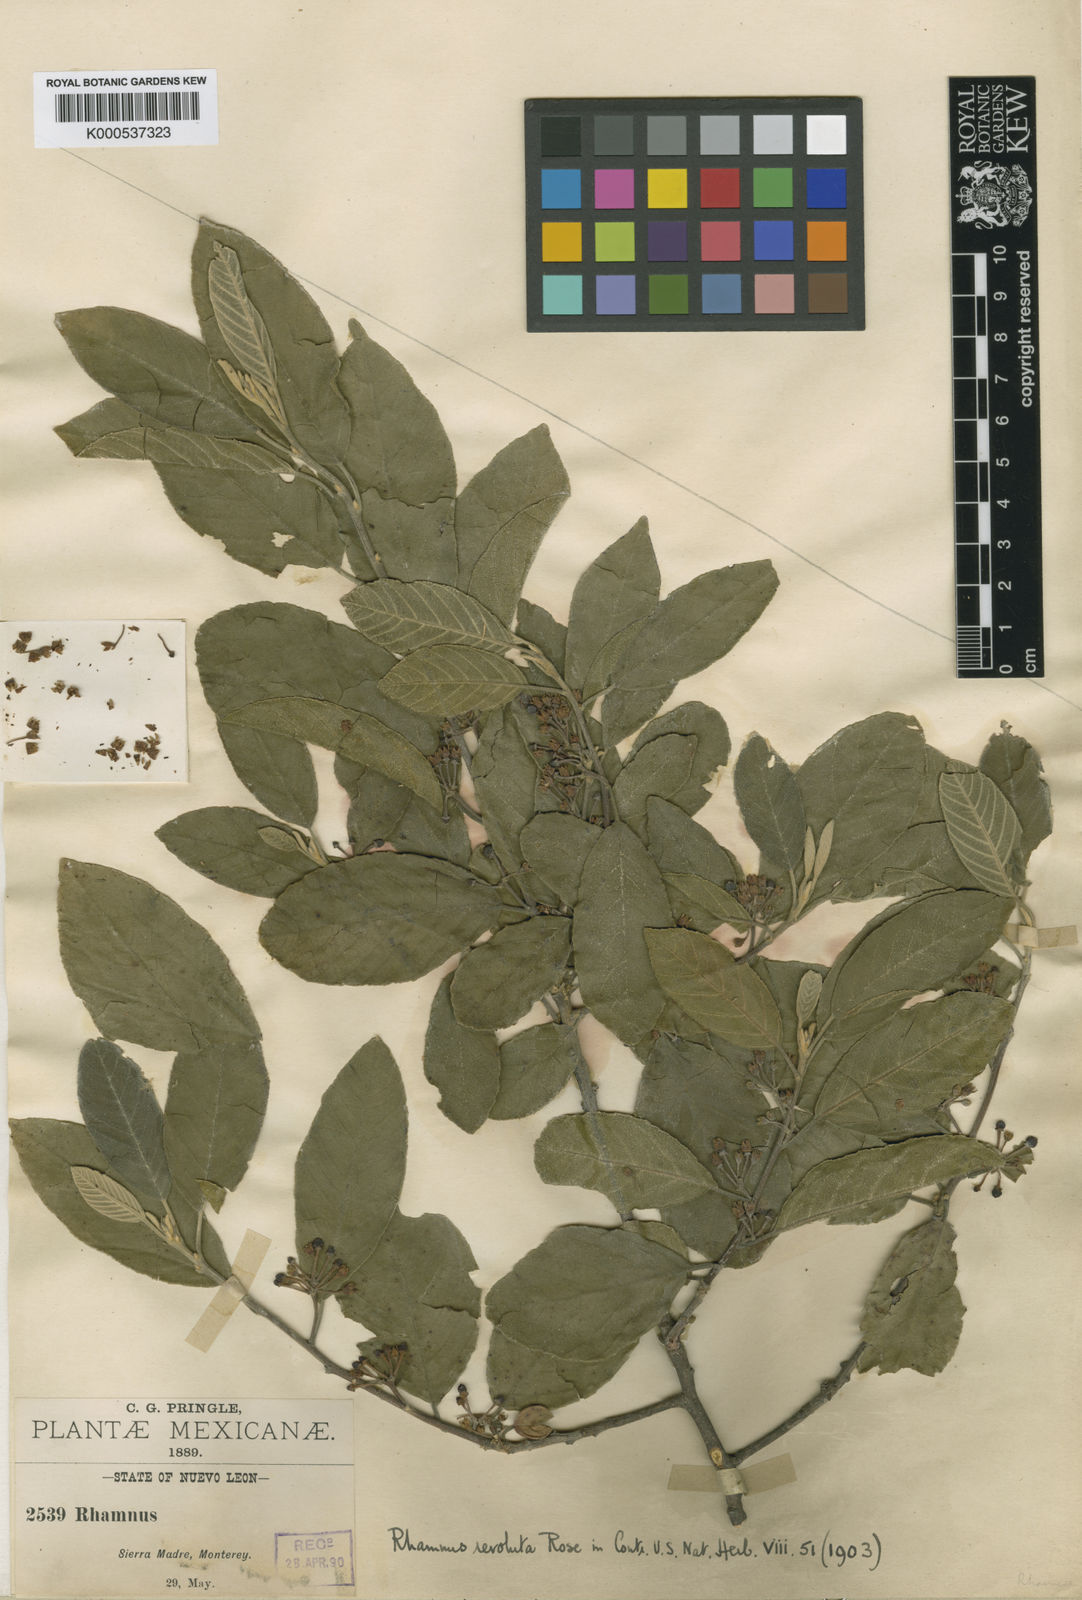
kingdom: Plantae
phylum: Tracheophyta
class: Magnoliopsida
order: Rosales
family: Rhamnaceae
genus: Frangula
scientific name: Frangula betulifolia
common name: Birch-leaf buckthorn
